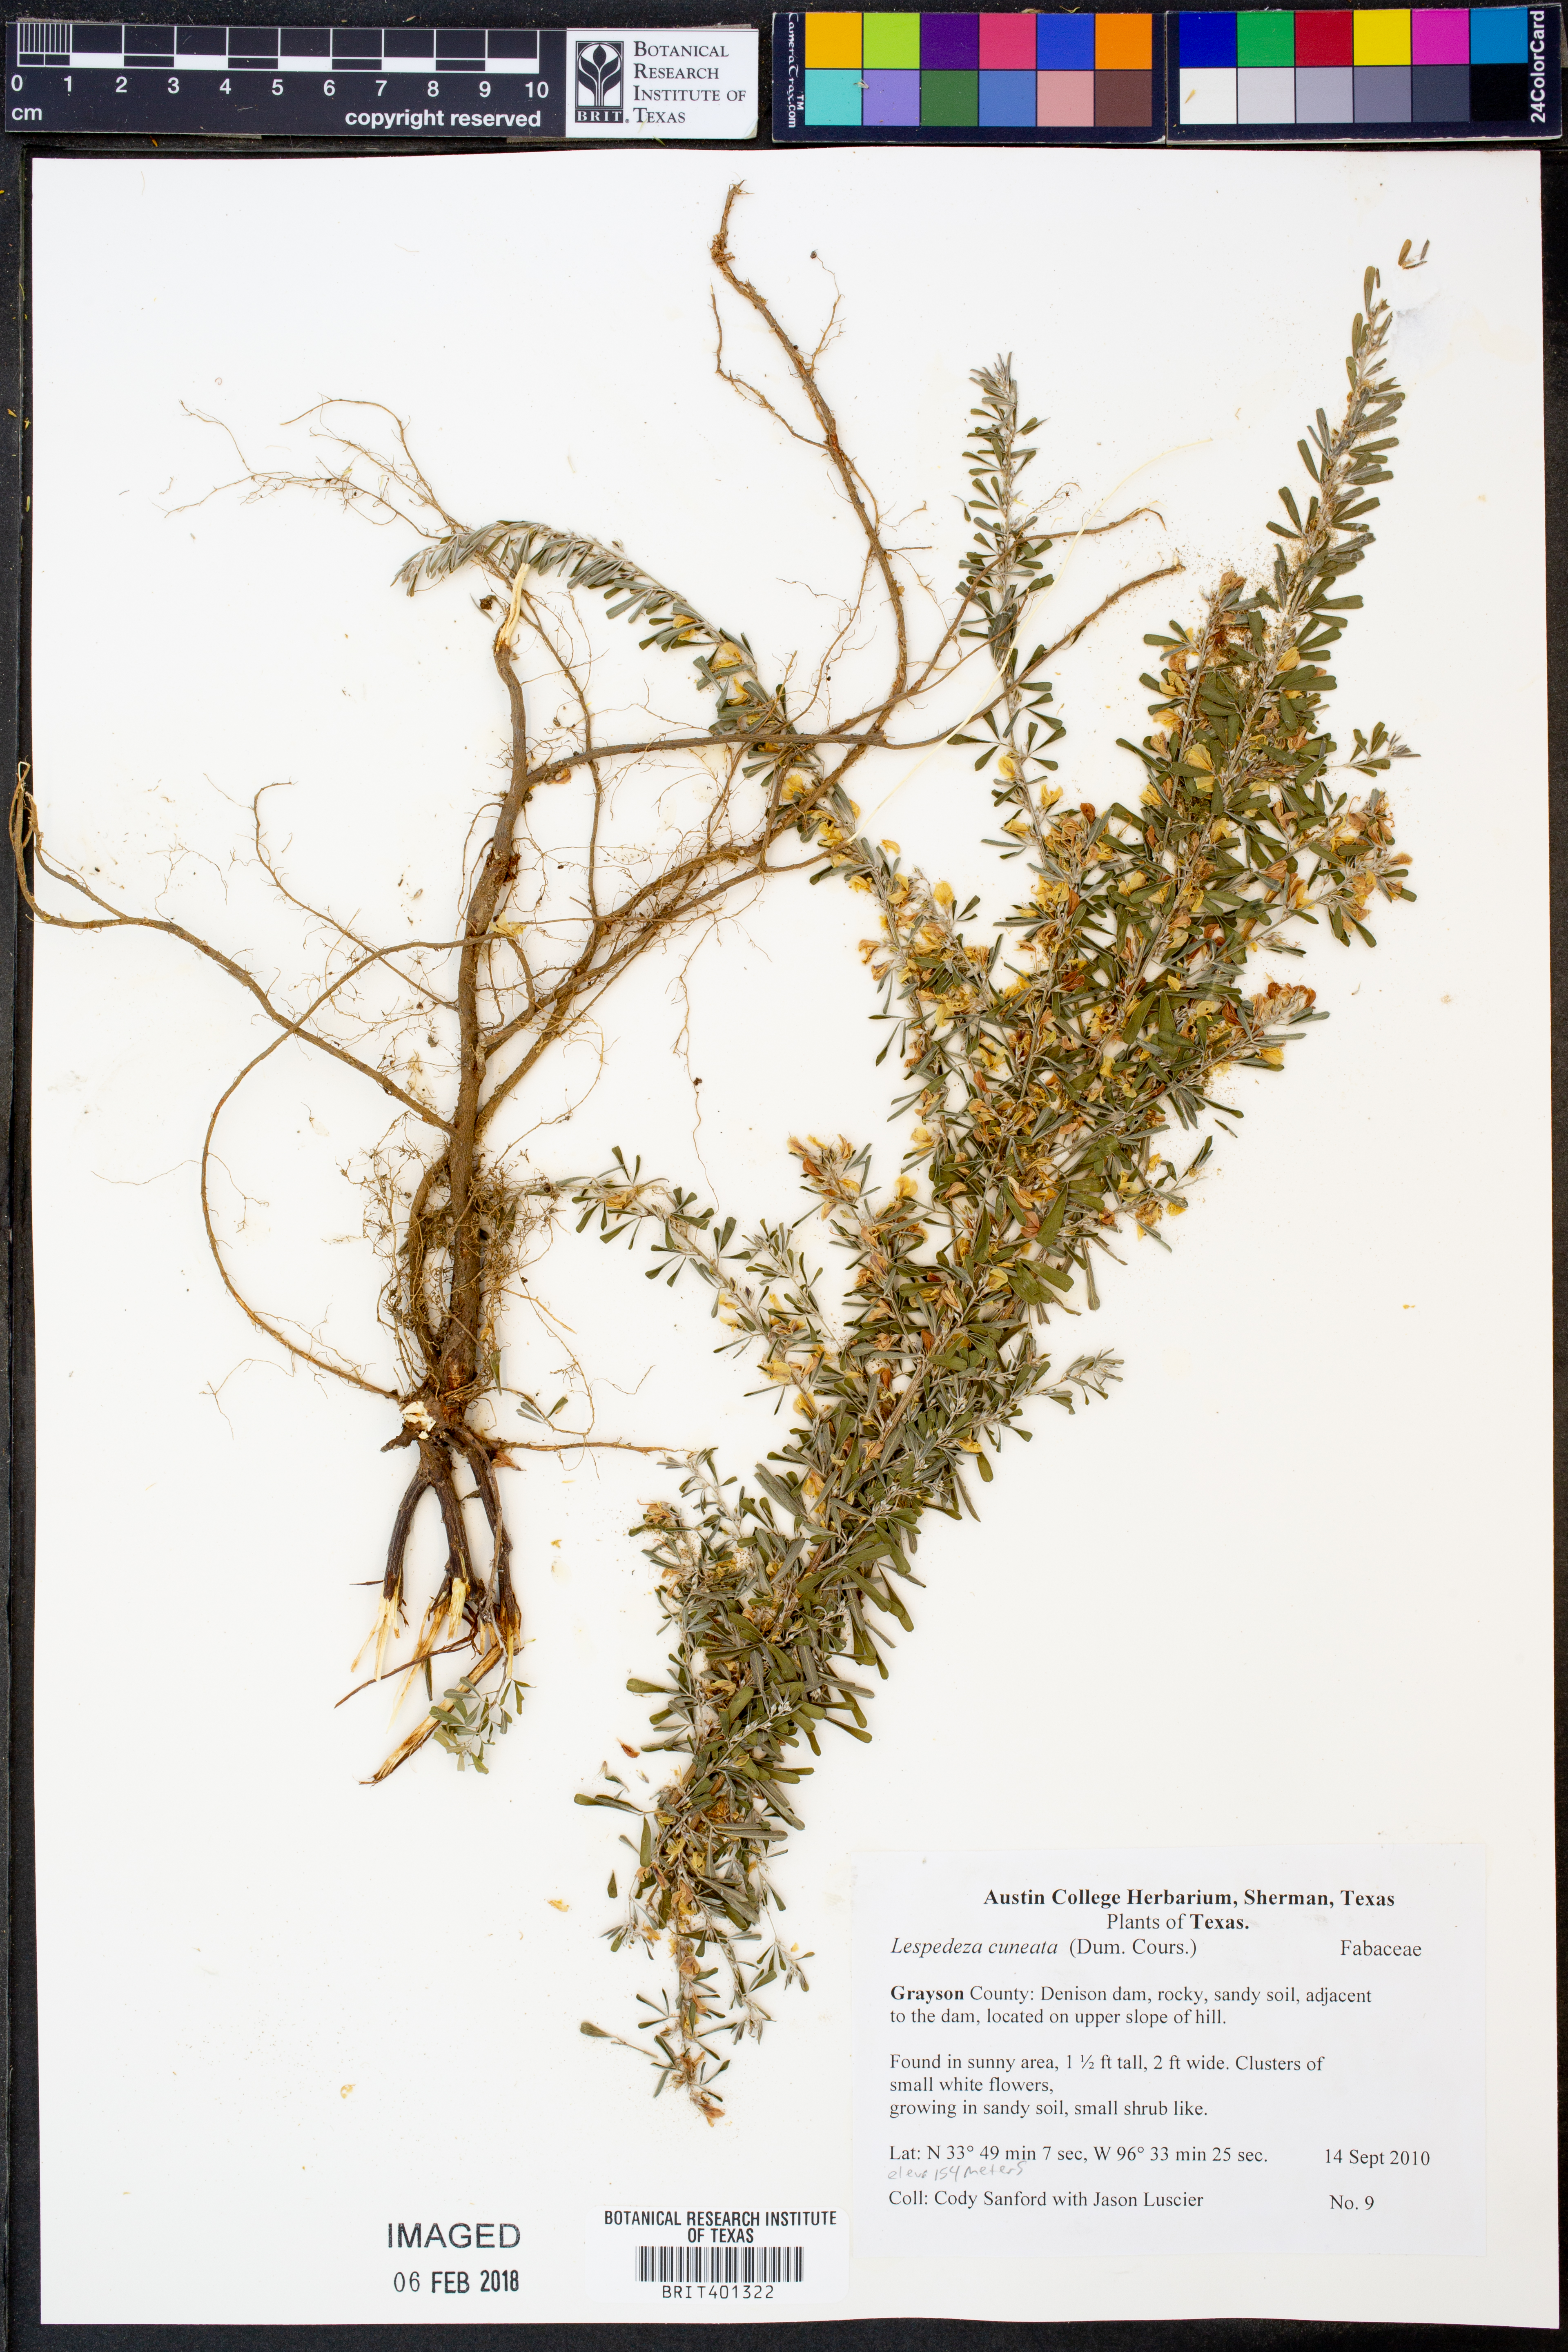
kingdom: Plantae
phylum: Tracheophyta
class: Magnoliopsida
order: Fabales
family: Fabaceae
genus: Lespedeza
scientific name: Lespedeza cuneata
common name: Chinese bush-clover
